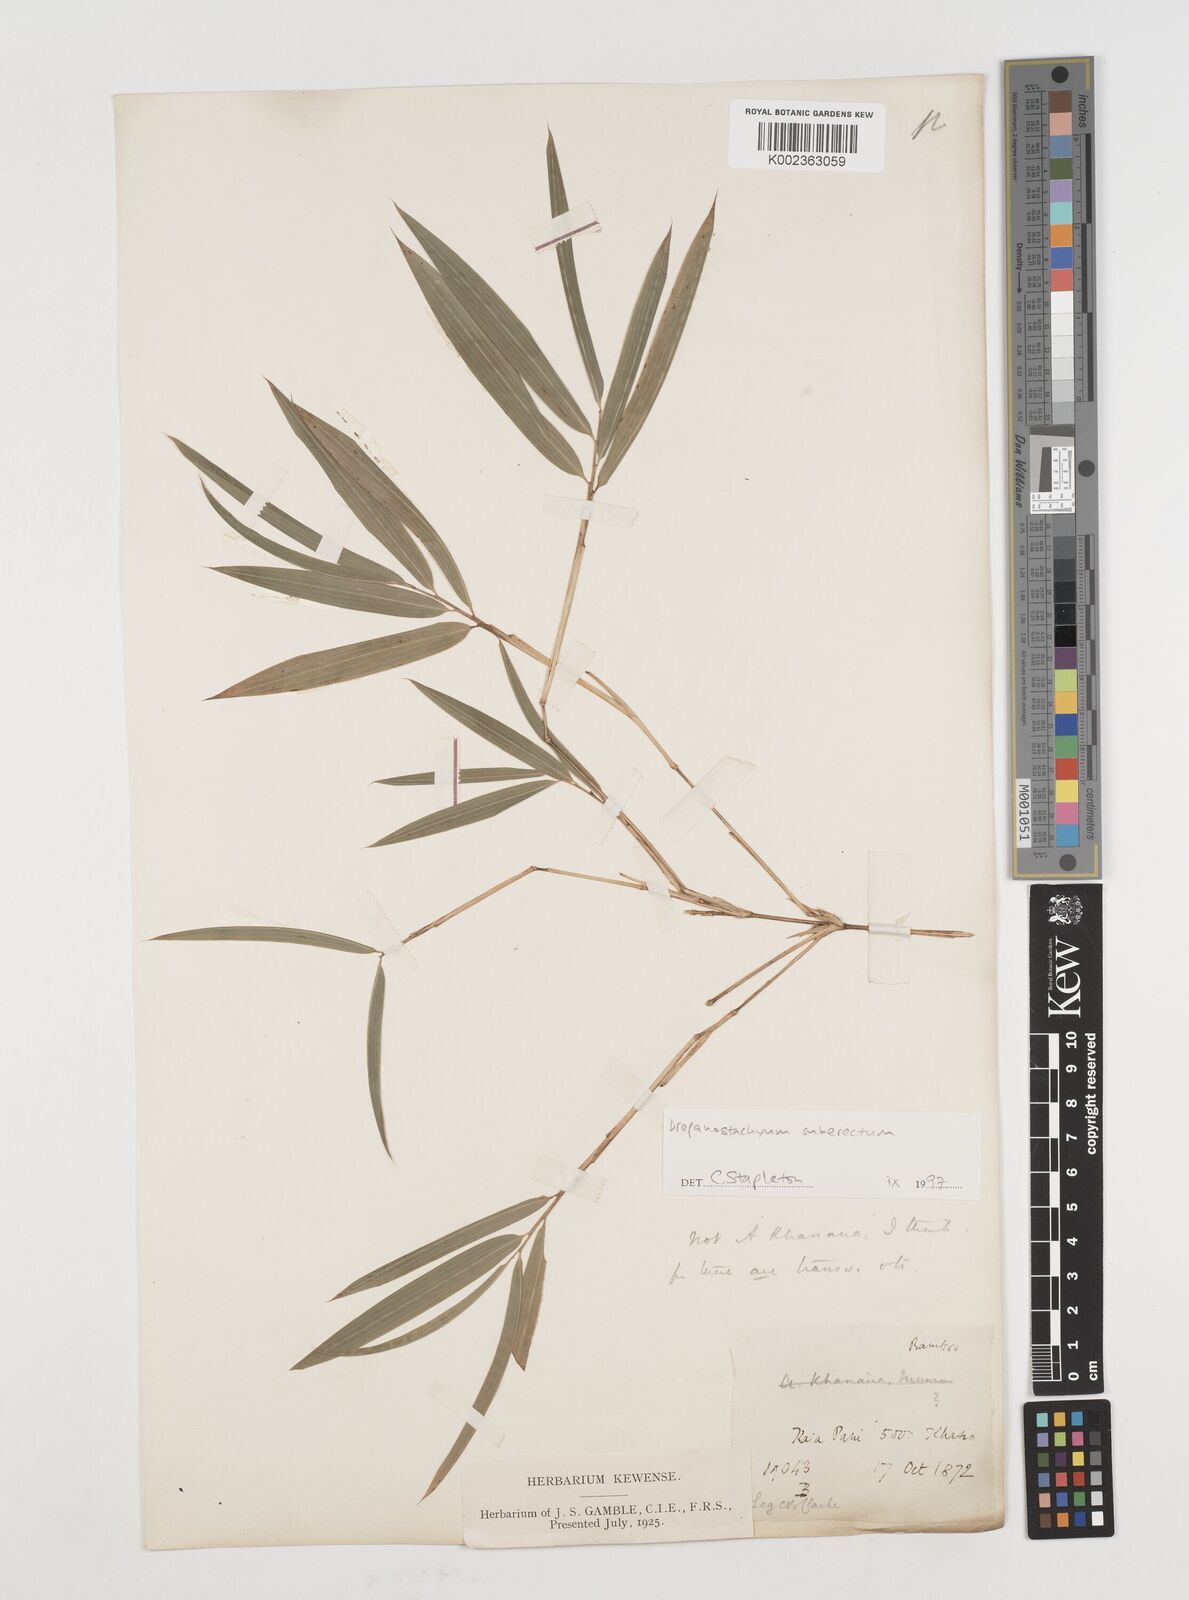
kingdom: Plantae
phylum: Tracheophyta
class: Liliopsida
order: Poales
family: Poaceae
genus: Drepanostachyum
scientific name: Drepanostachyum khasianum
